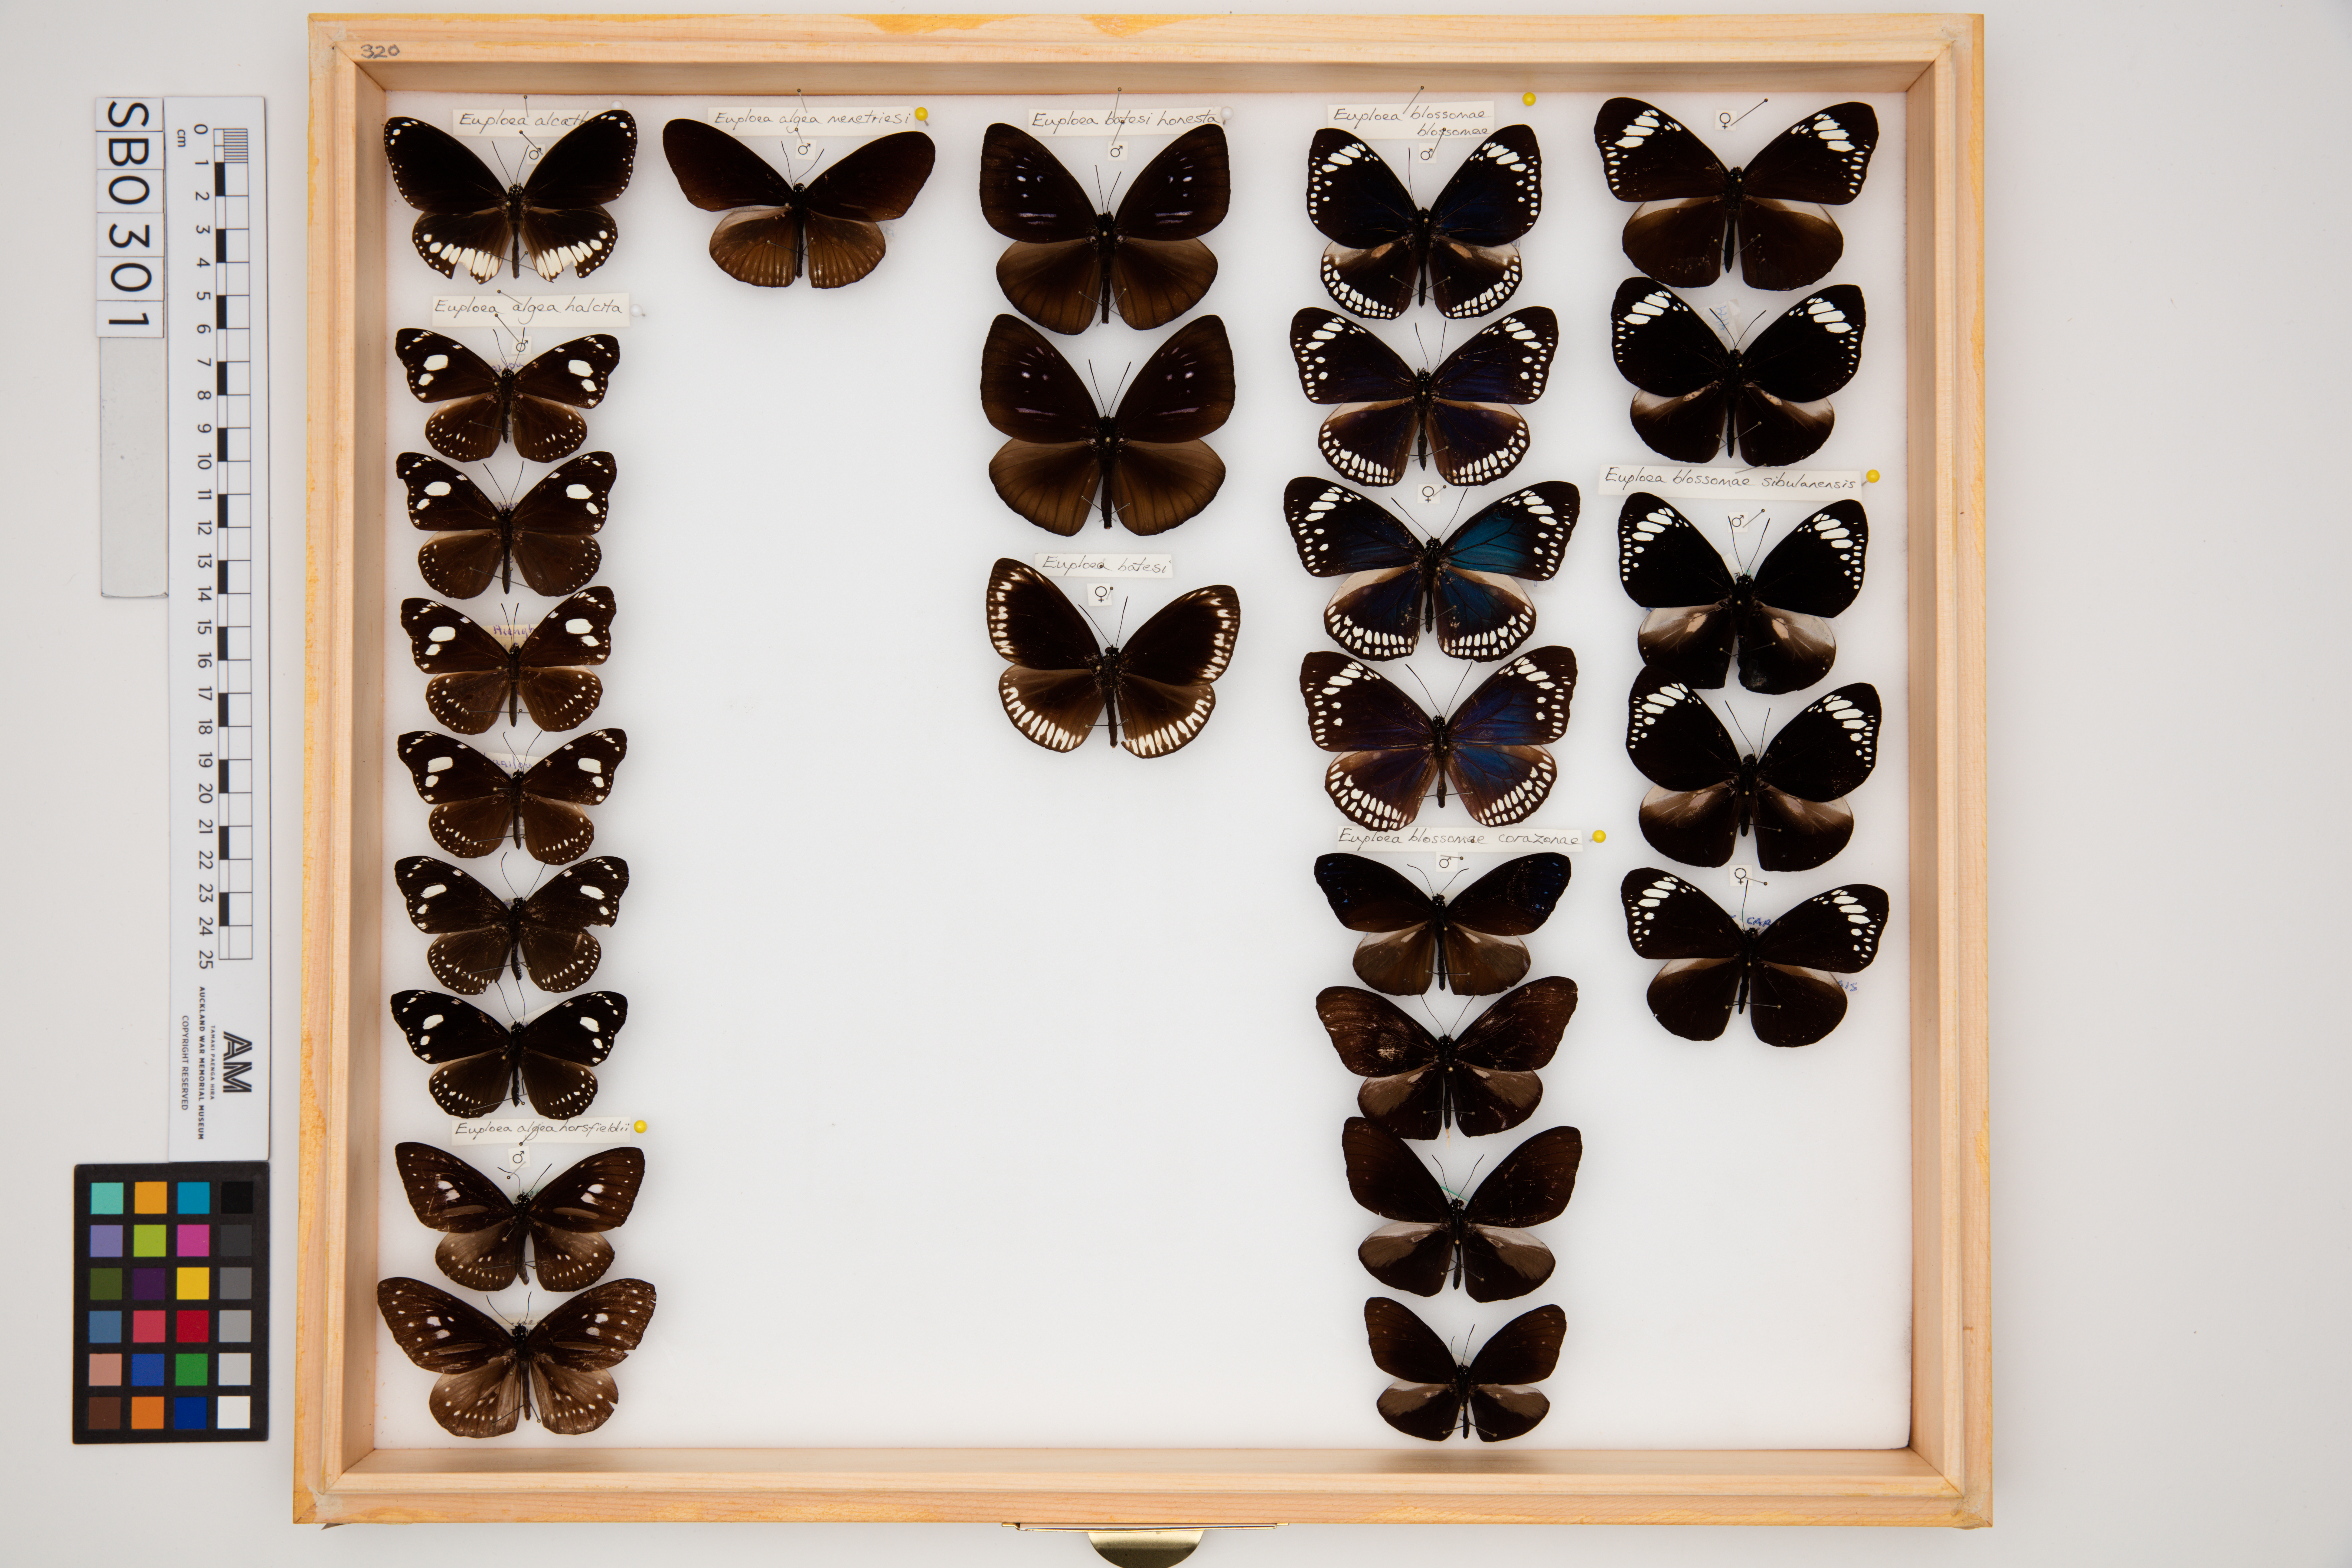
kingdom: Animalia
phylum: Arthropoda
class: Insecta
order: Lepidoptera
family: Nymphalidae
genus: Euploea
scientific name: Euploea algea
